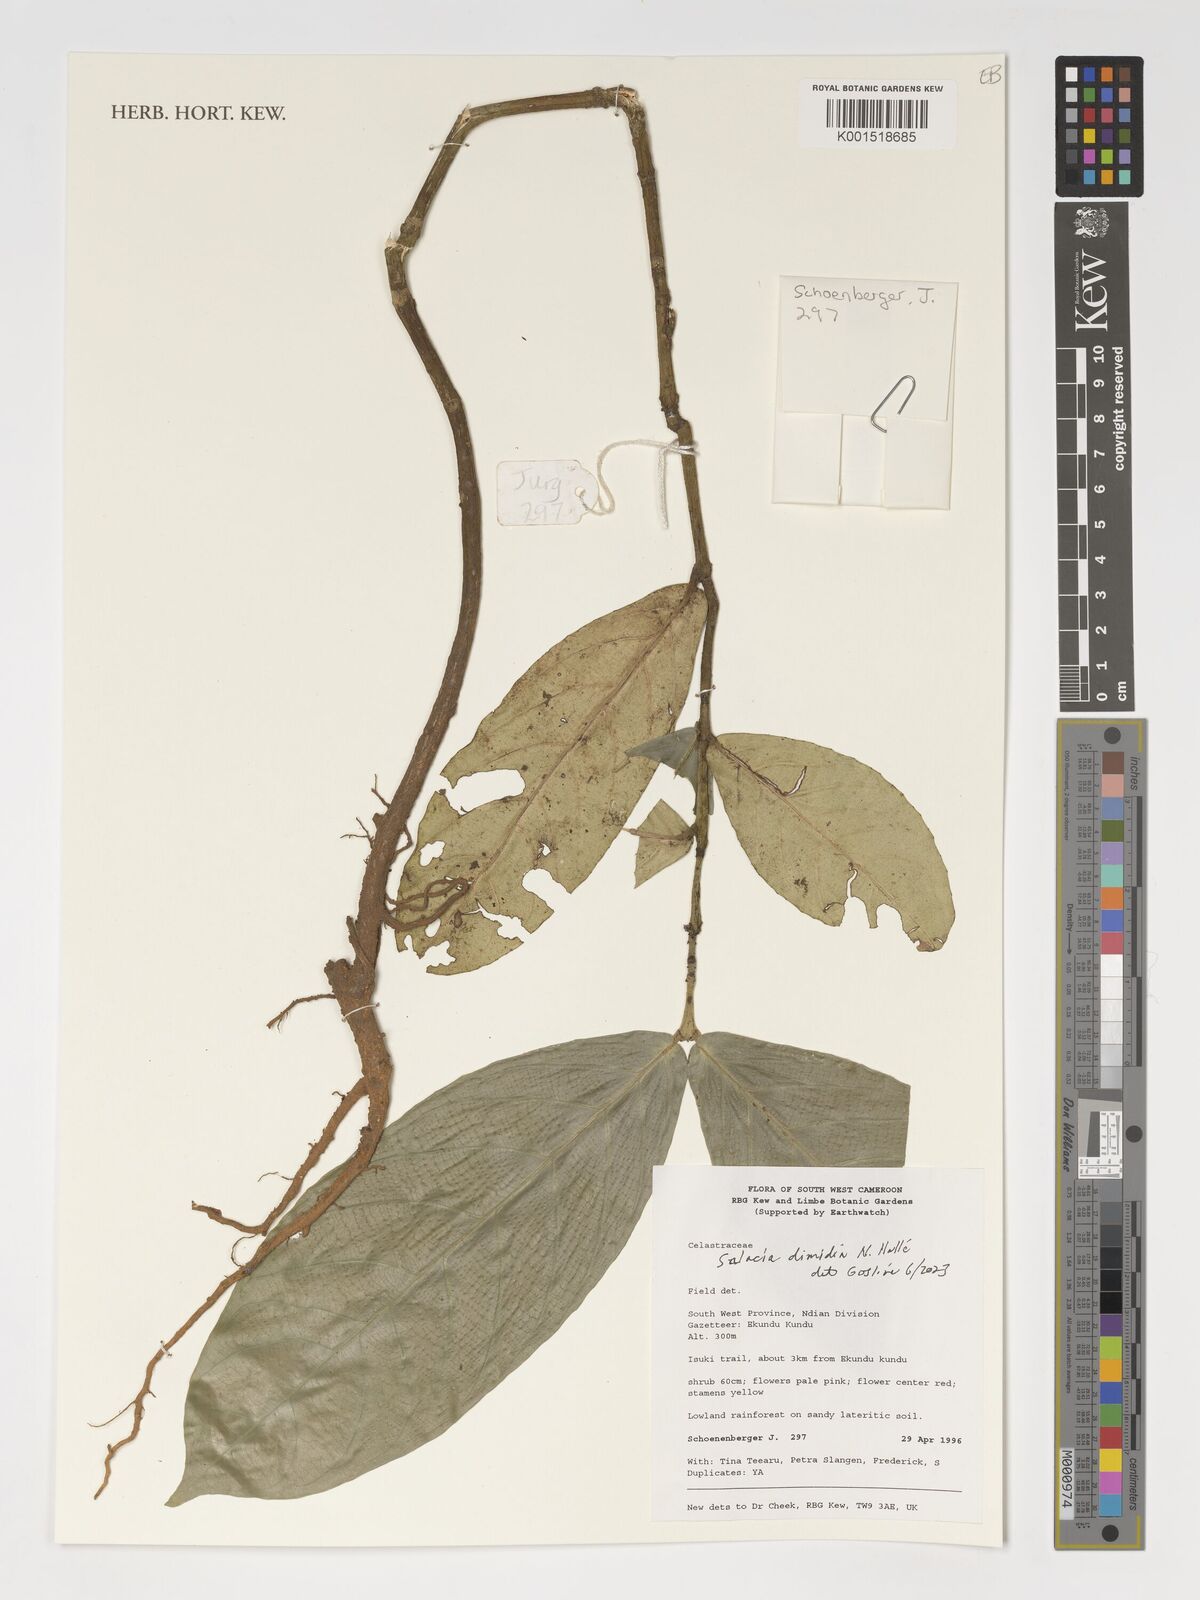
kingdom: Plantae
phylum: Tracheophyta
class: Magnoliopsida
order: Celastrales
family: Celastraceae
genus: Salacia
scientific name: Salacia dimidia
